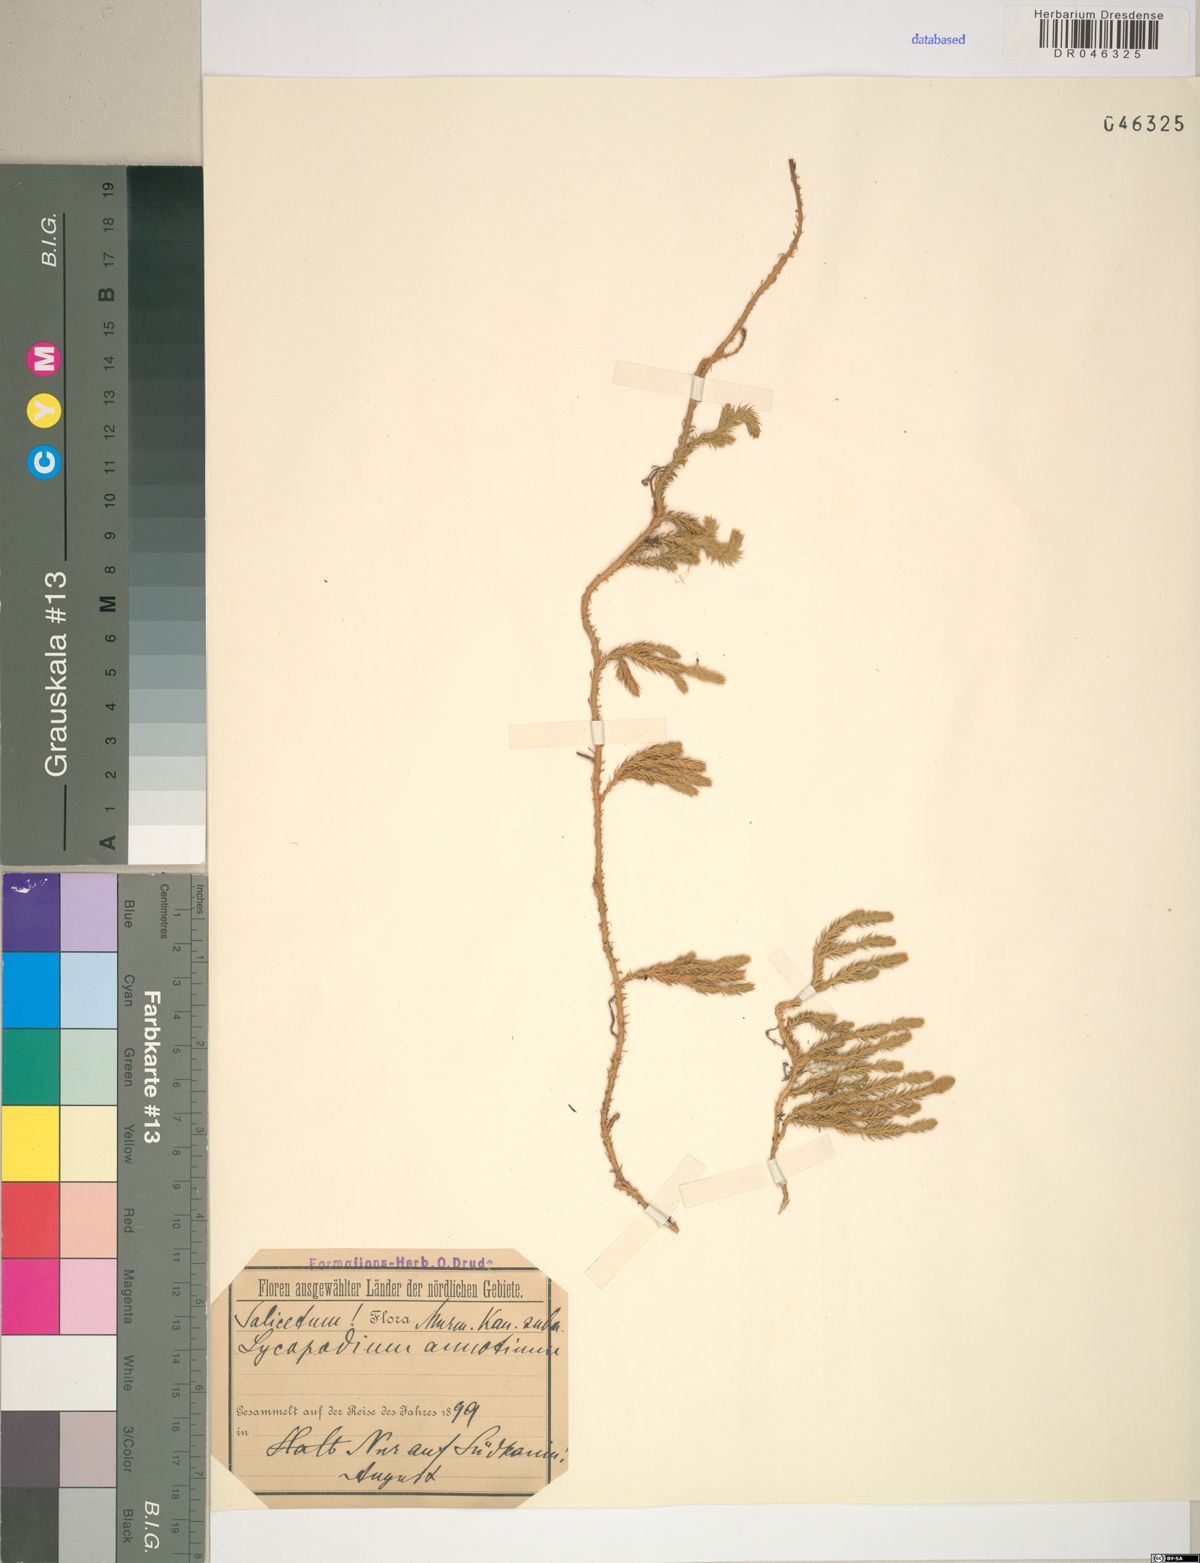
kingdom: Plantae
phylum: Tracheophyta
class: Lycopodiopsida
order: Lycopodiales
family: Lycopodiaceae
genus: Spinulum
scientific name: Spinulum annotinum
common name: Interrupted club-moss
